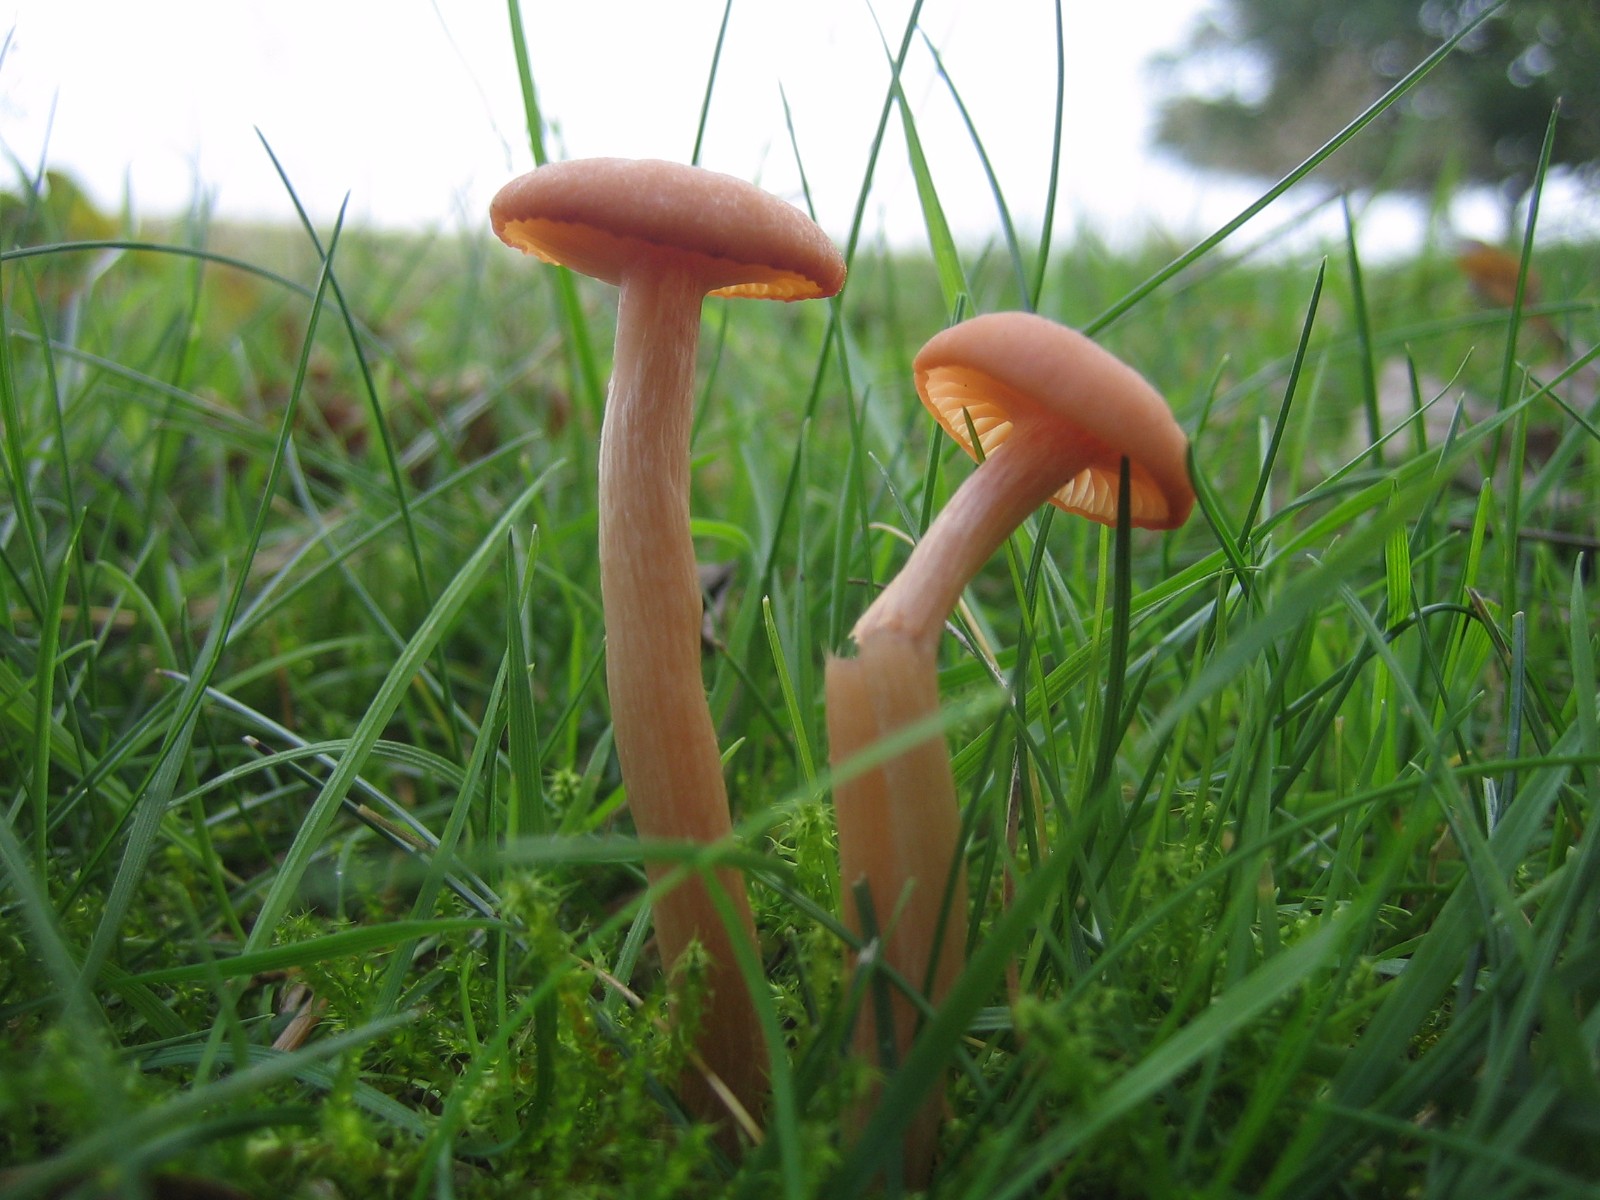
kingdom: Fungi
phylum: Basidiomycota
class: Agaricomycetes
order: Agaricales
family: Hydnangiaceae
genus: Laccaria
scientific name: Laccaria laccata
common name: rød ametysthat
